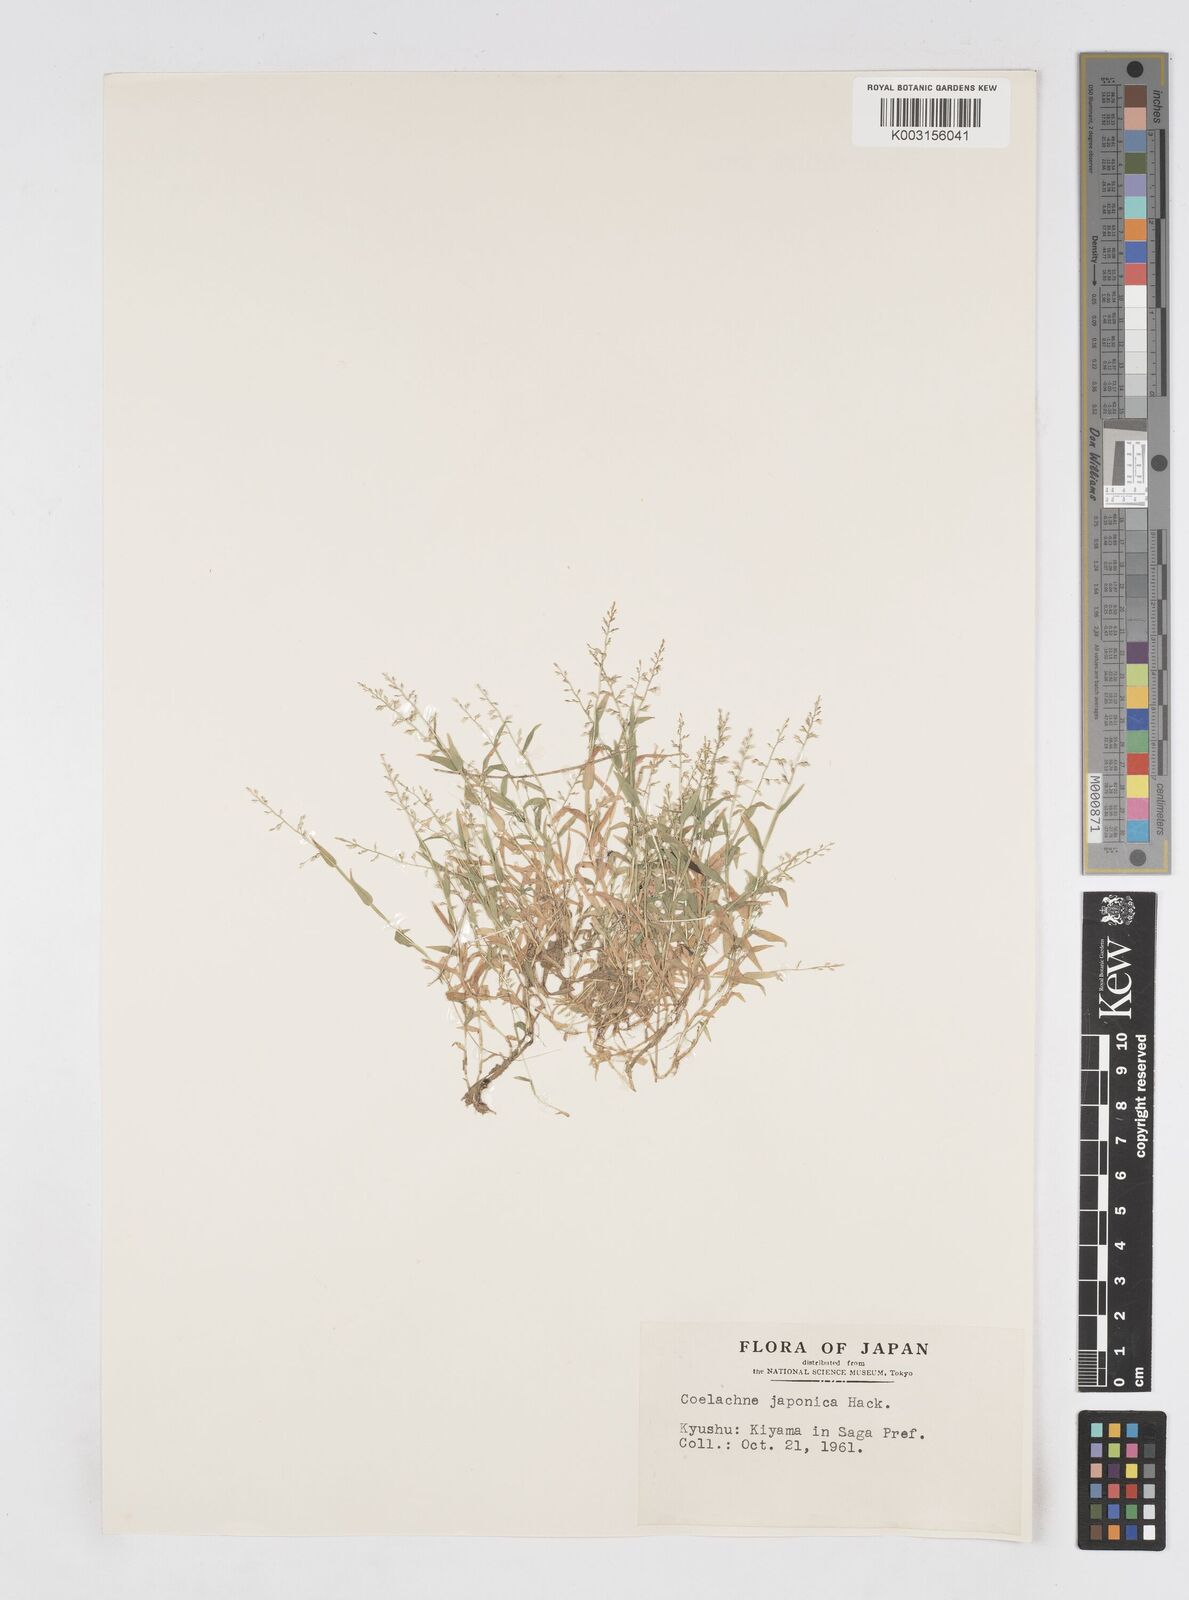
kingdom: Plantae
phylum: Tracheophyta
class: Liliopsida
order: Poales
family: Poaceae
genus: Coelachne
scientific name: Coelachne japonica
